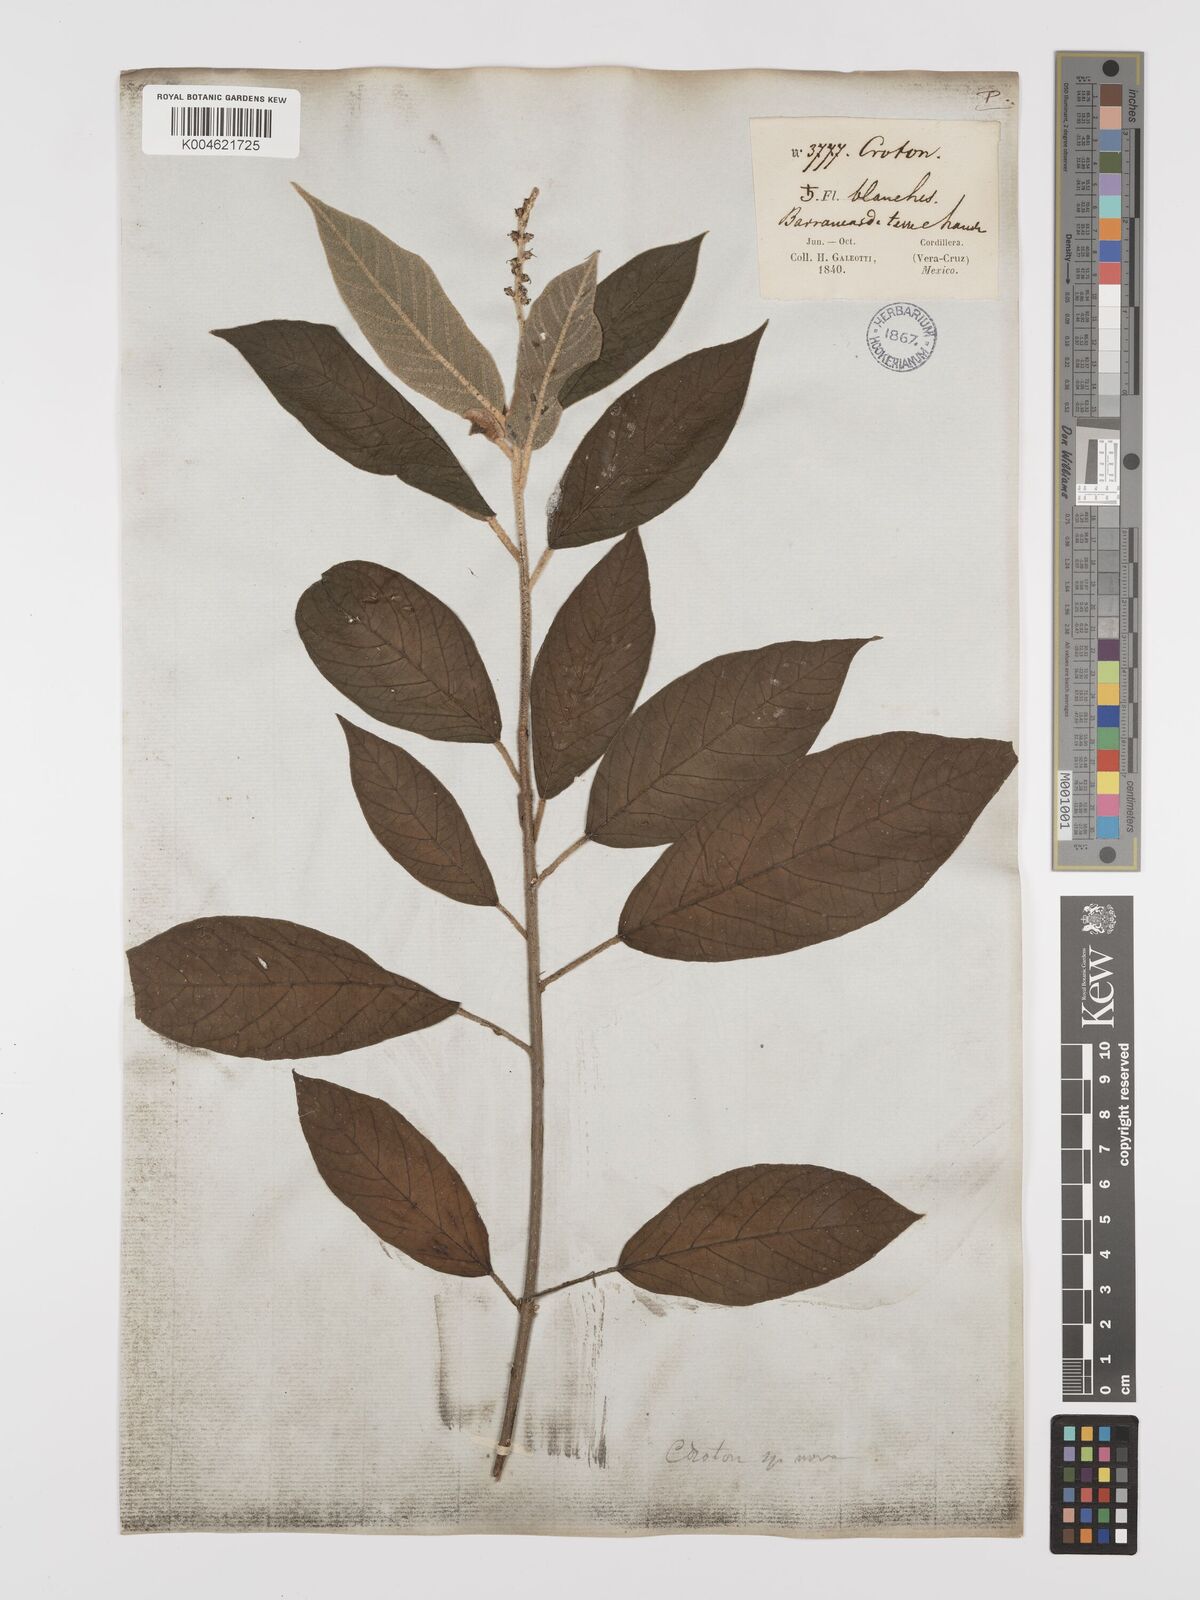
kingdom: Plantae
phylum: Tracheophyta
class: Magnoliopsida
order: Malpighiales
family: Euphorbiaceae
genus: Croton
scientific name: Croton miradorensis
